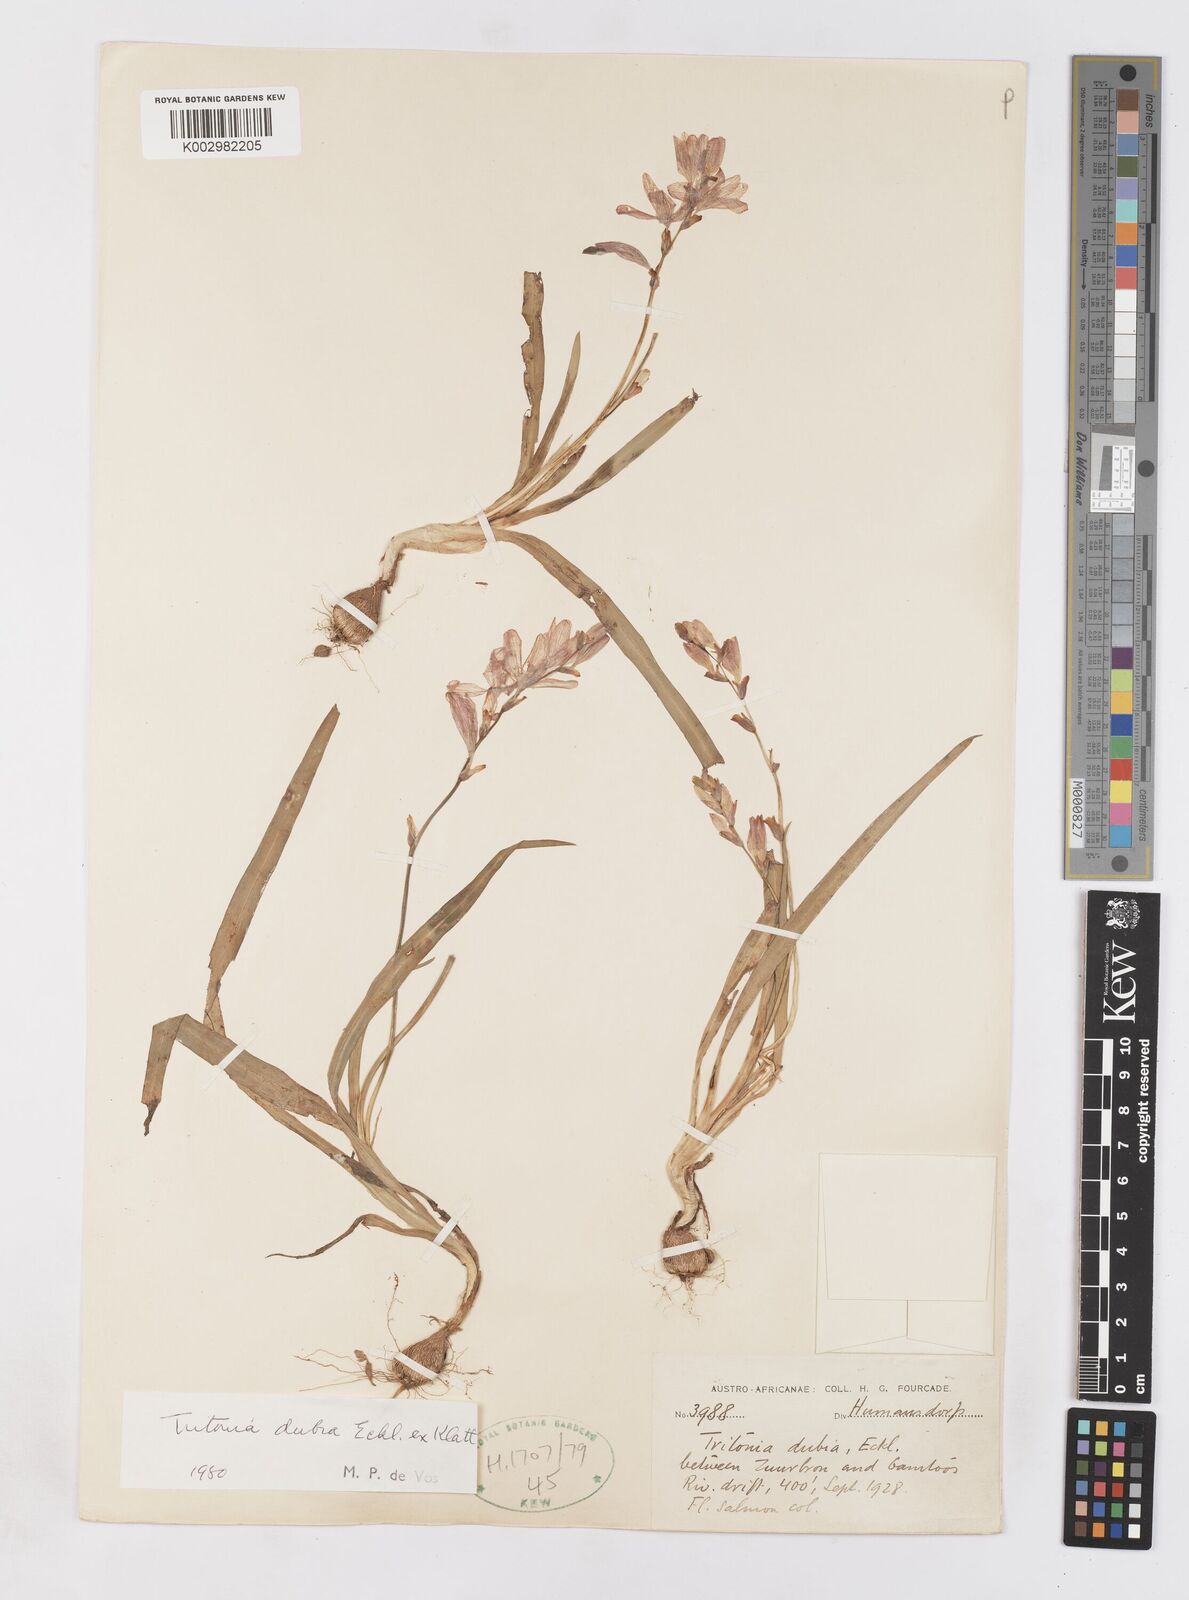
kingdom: Plantae
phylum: Tracheophyta
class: Liliopsida
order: Asparagales
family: Iridaceae
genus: Tritonia
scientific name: Tritonia dubia
